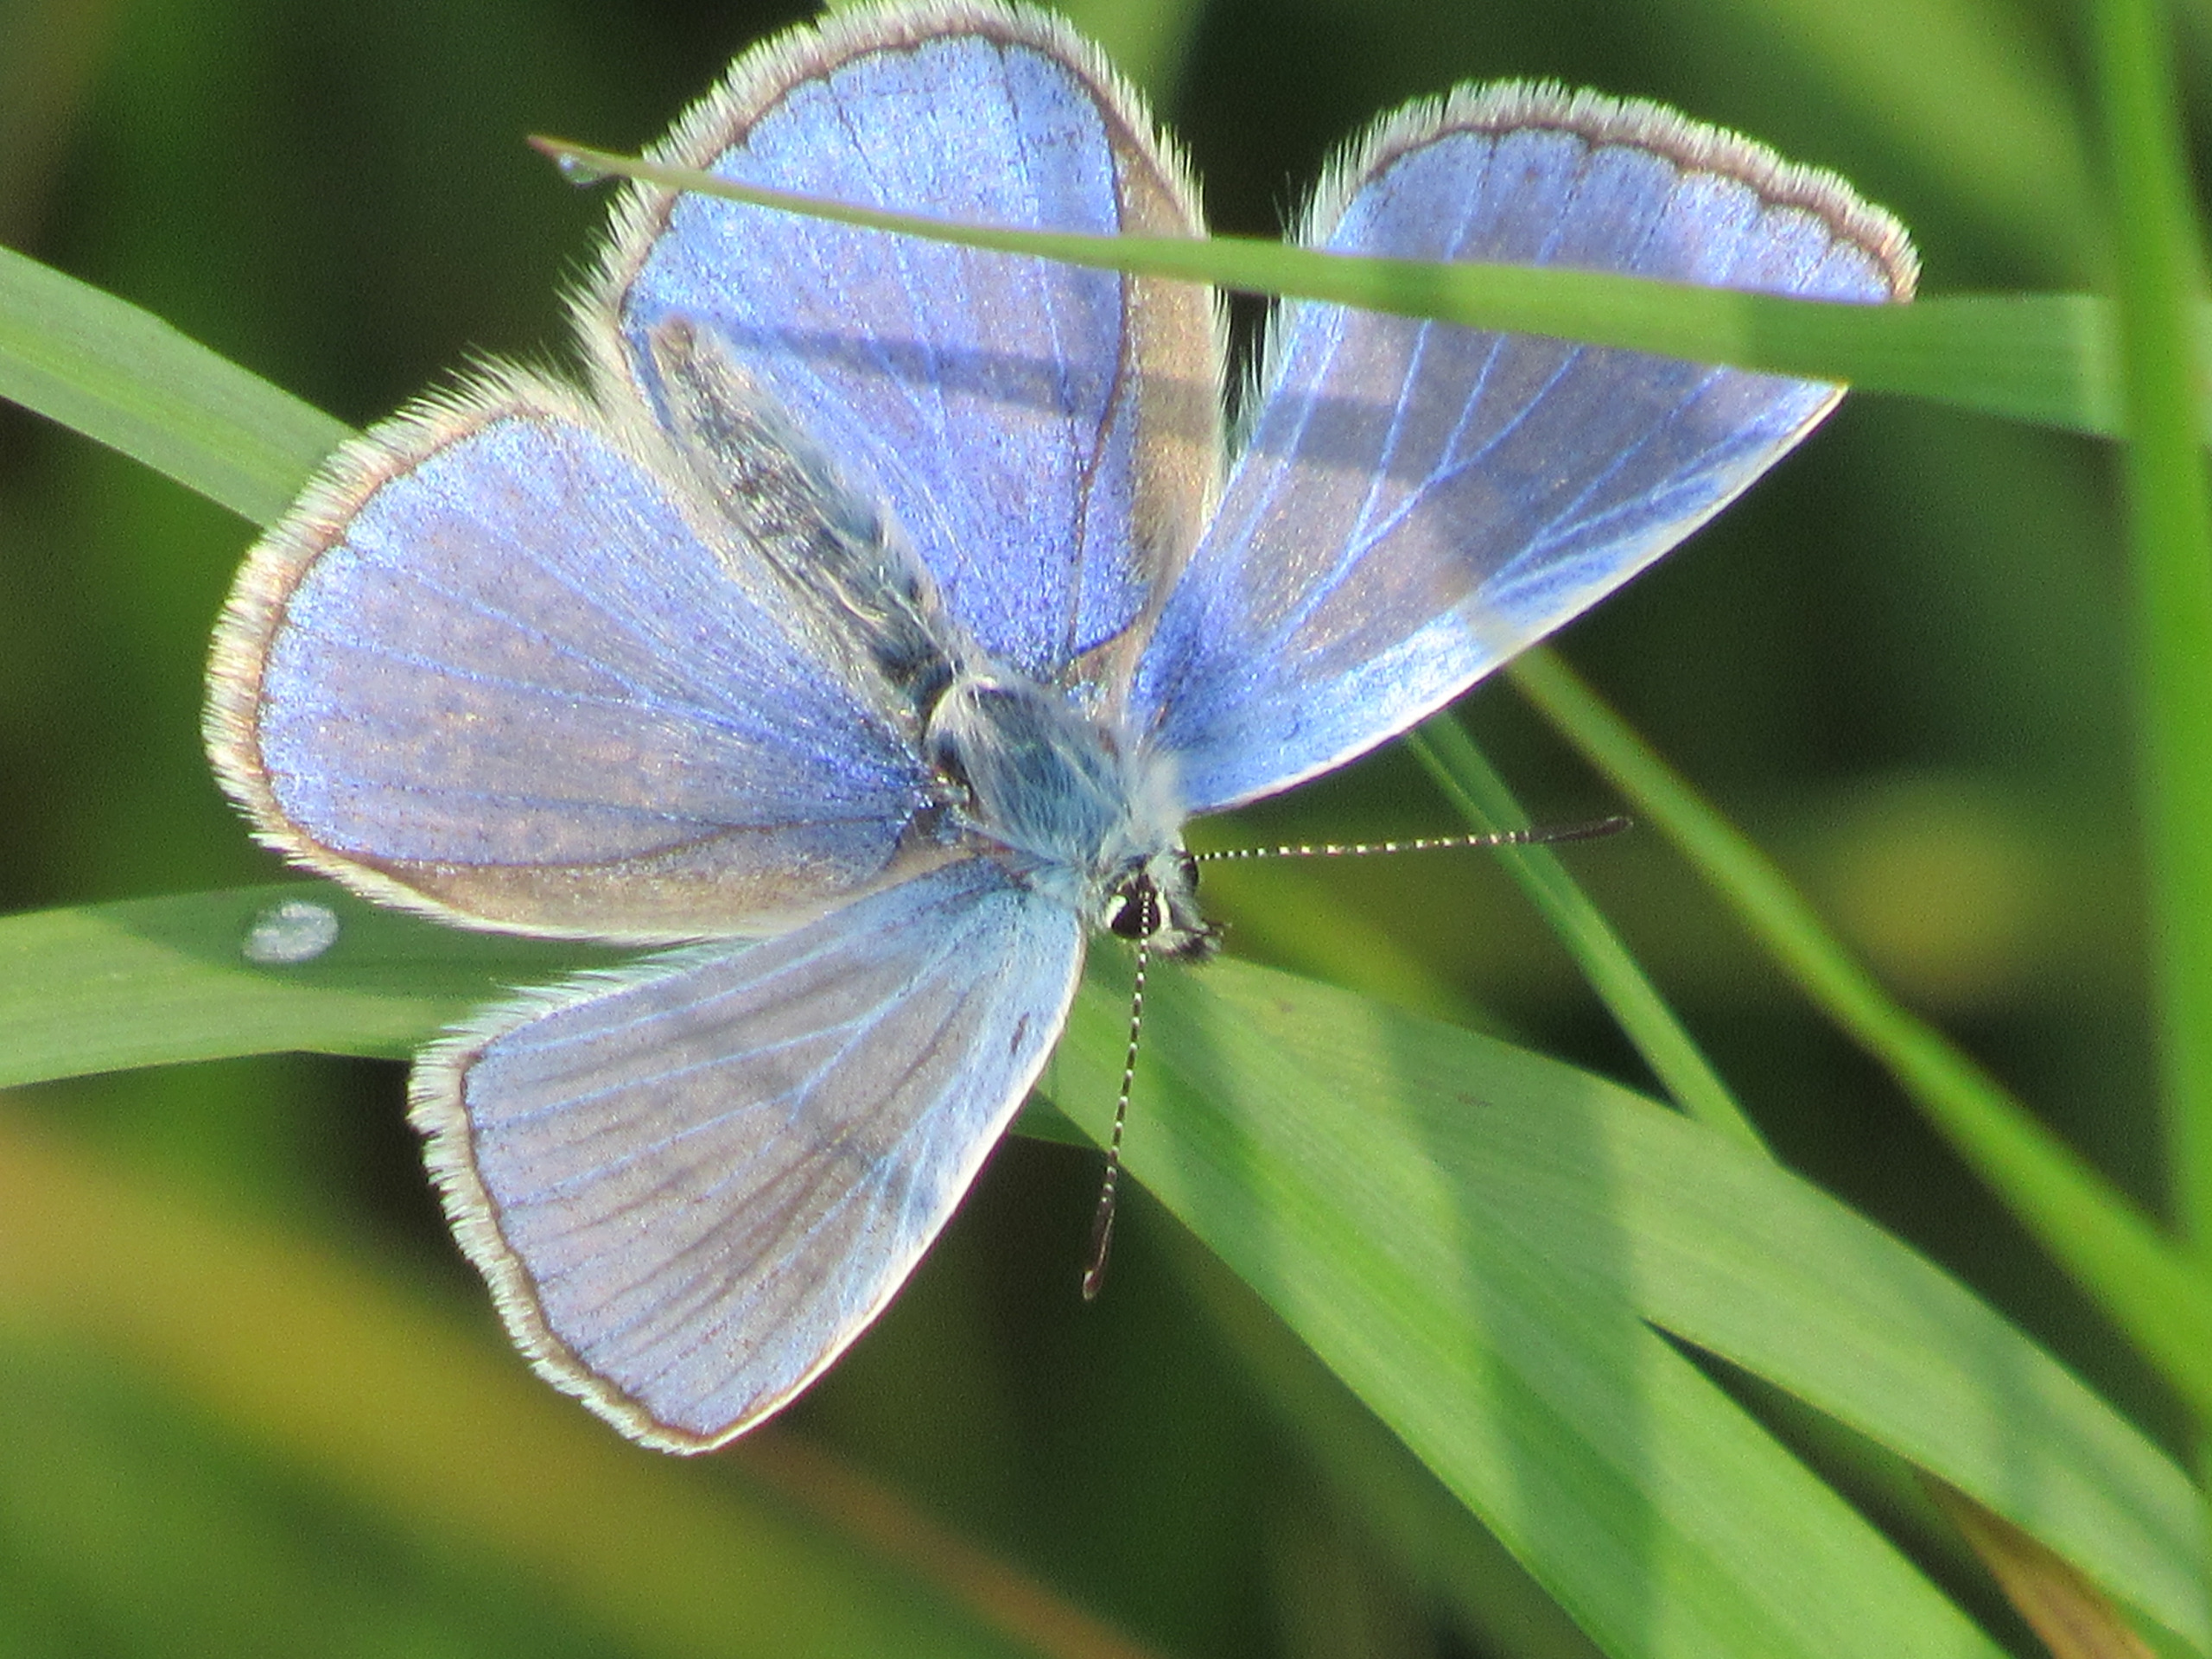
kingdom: Animalia
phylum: Arthropoda
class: Insecta
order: Lepidoptera
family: Lycaenidae
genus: Polyommatus
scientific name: Polyommatus icarus
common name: Almindelig blåfugl
